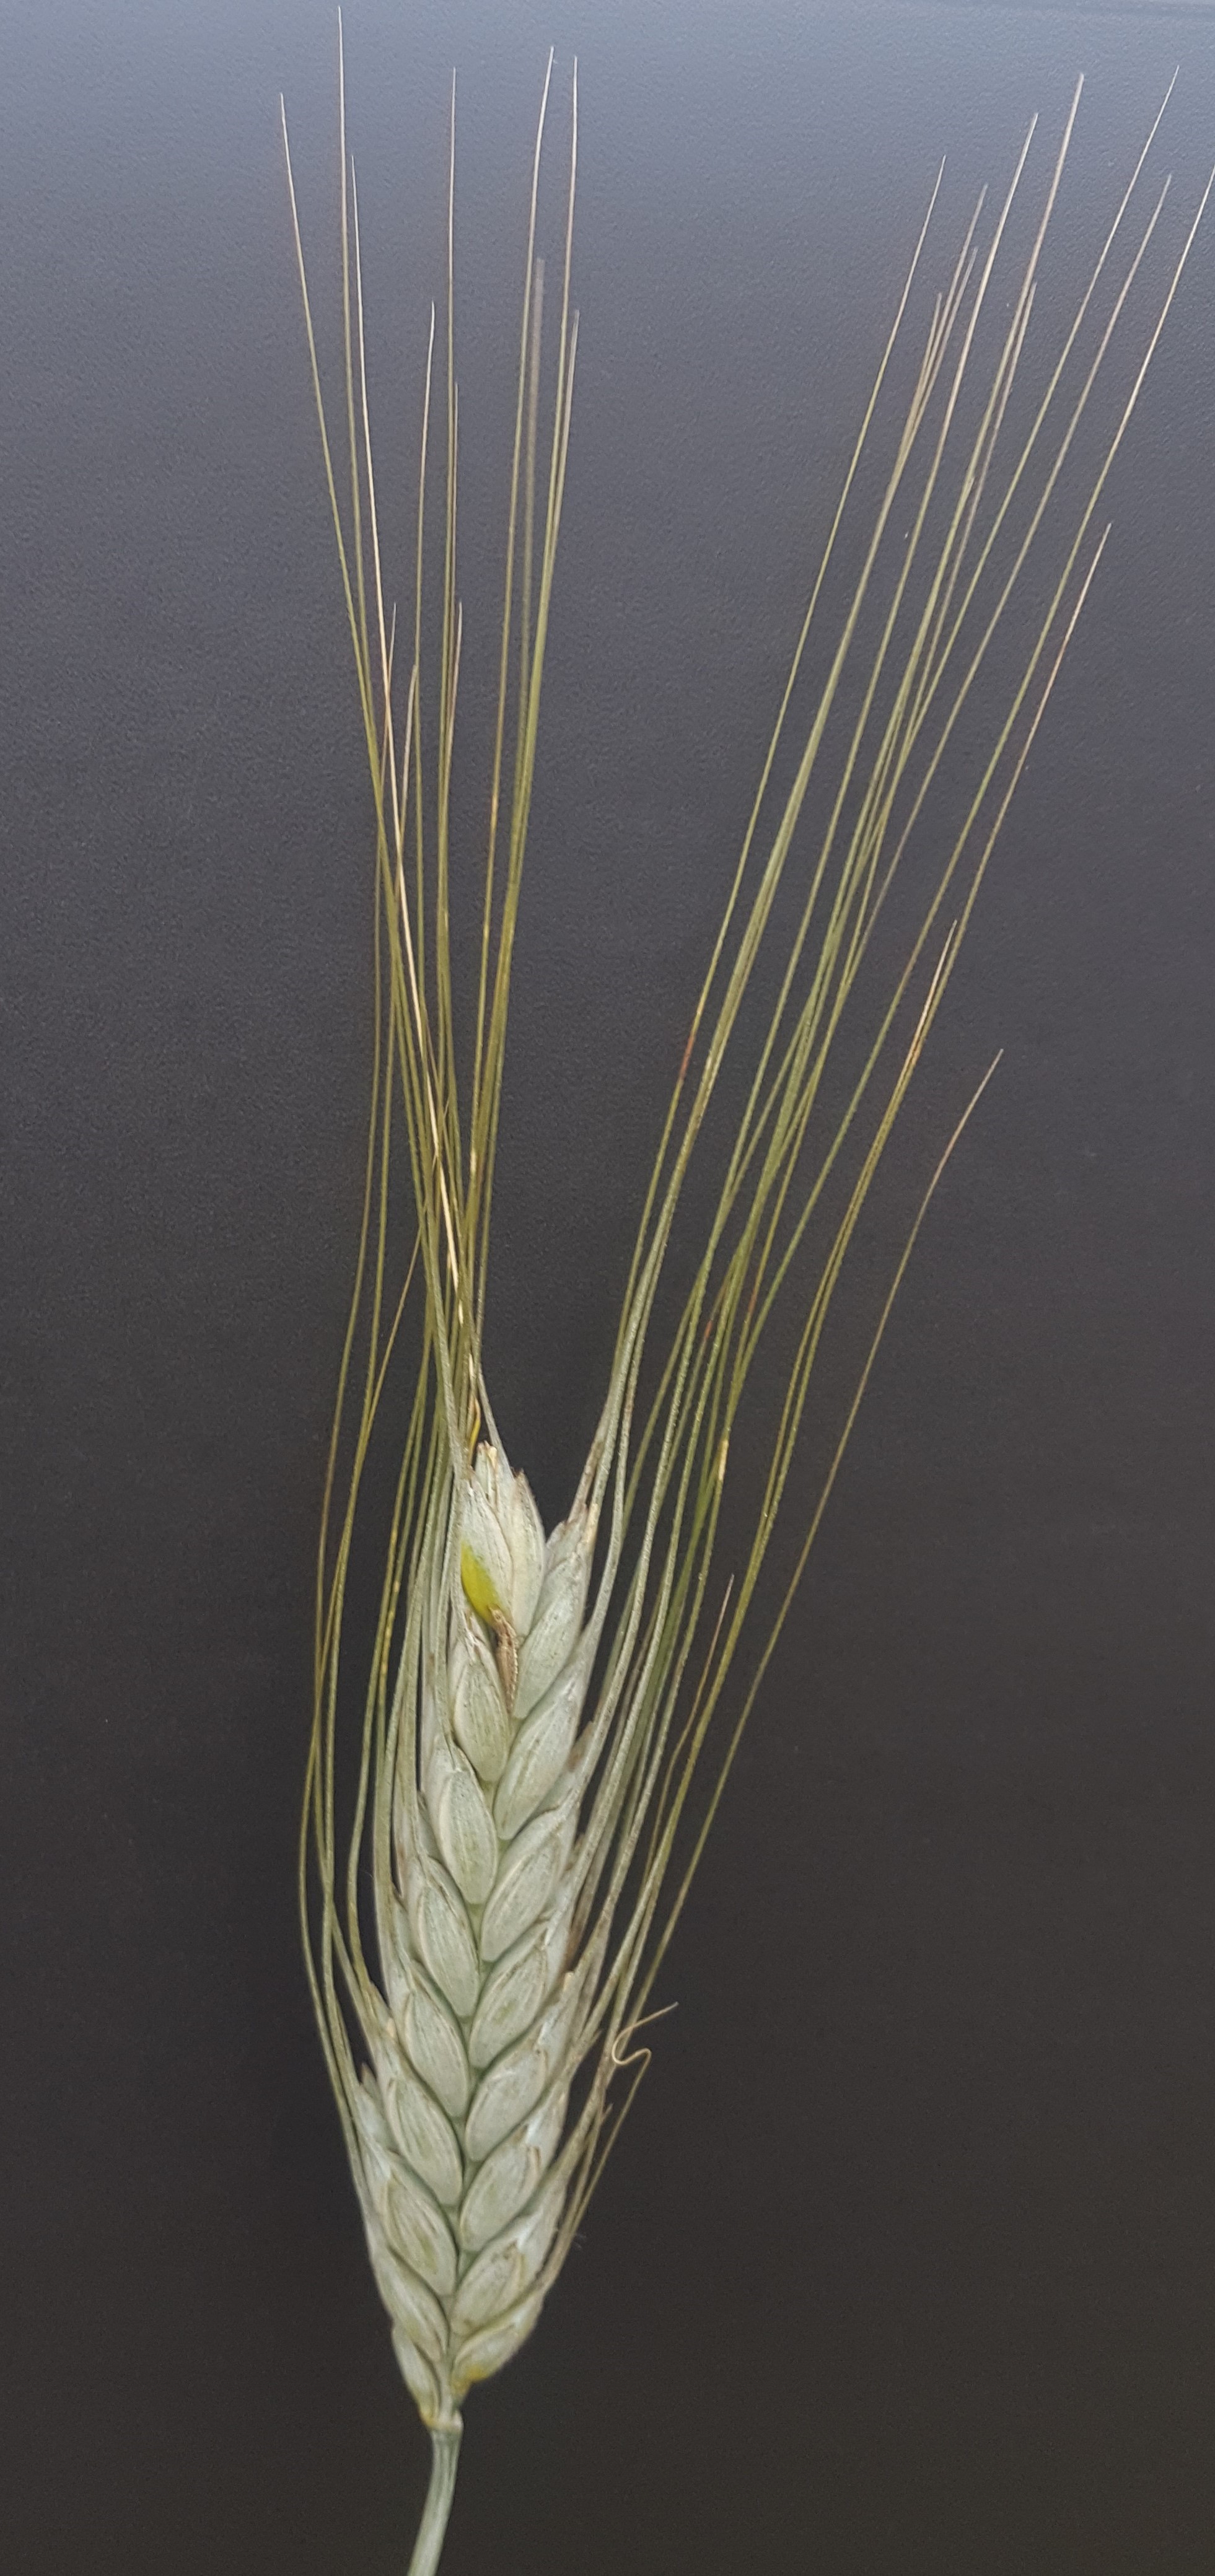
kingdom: Plantae
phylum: Tracheophyta
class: Liliopsida
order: Poales
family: Poaceae
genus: Triticum
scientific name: Triticum turgidum
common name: Rivet wheat
